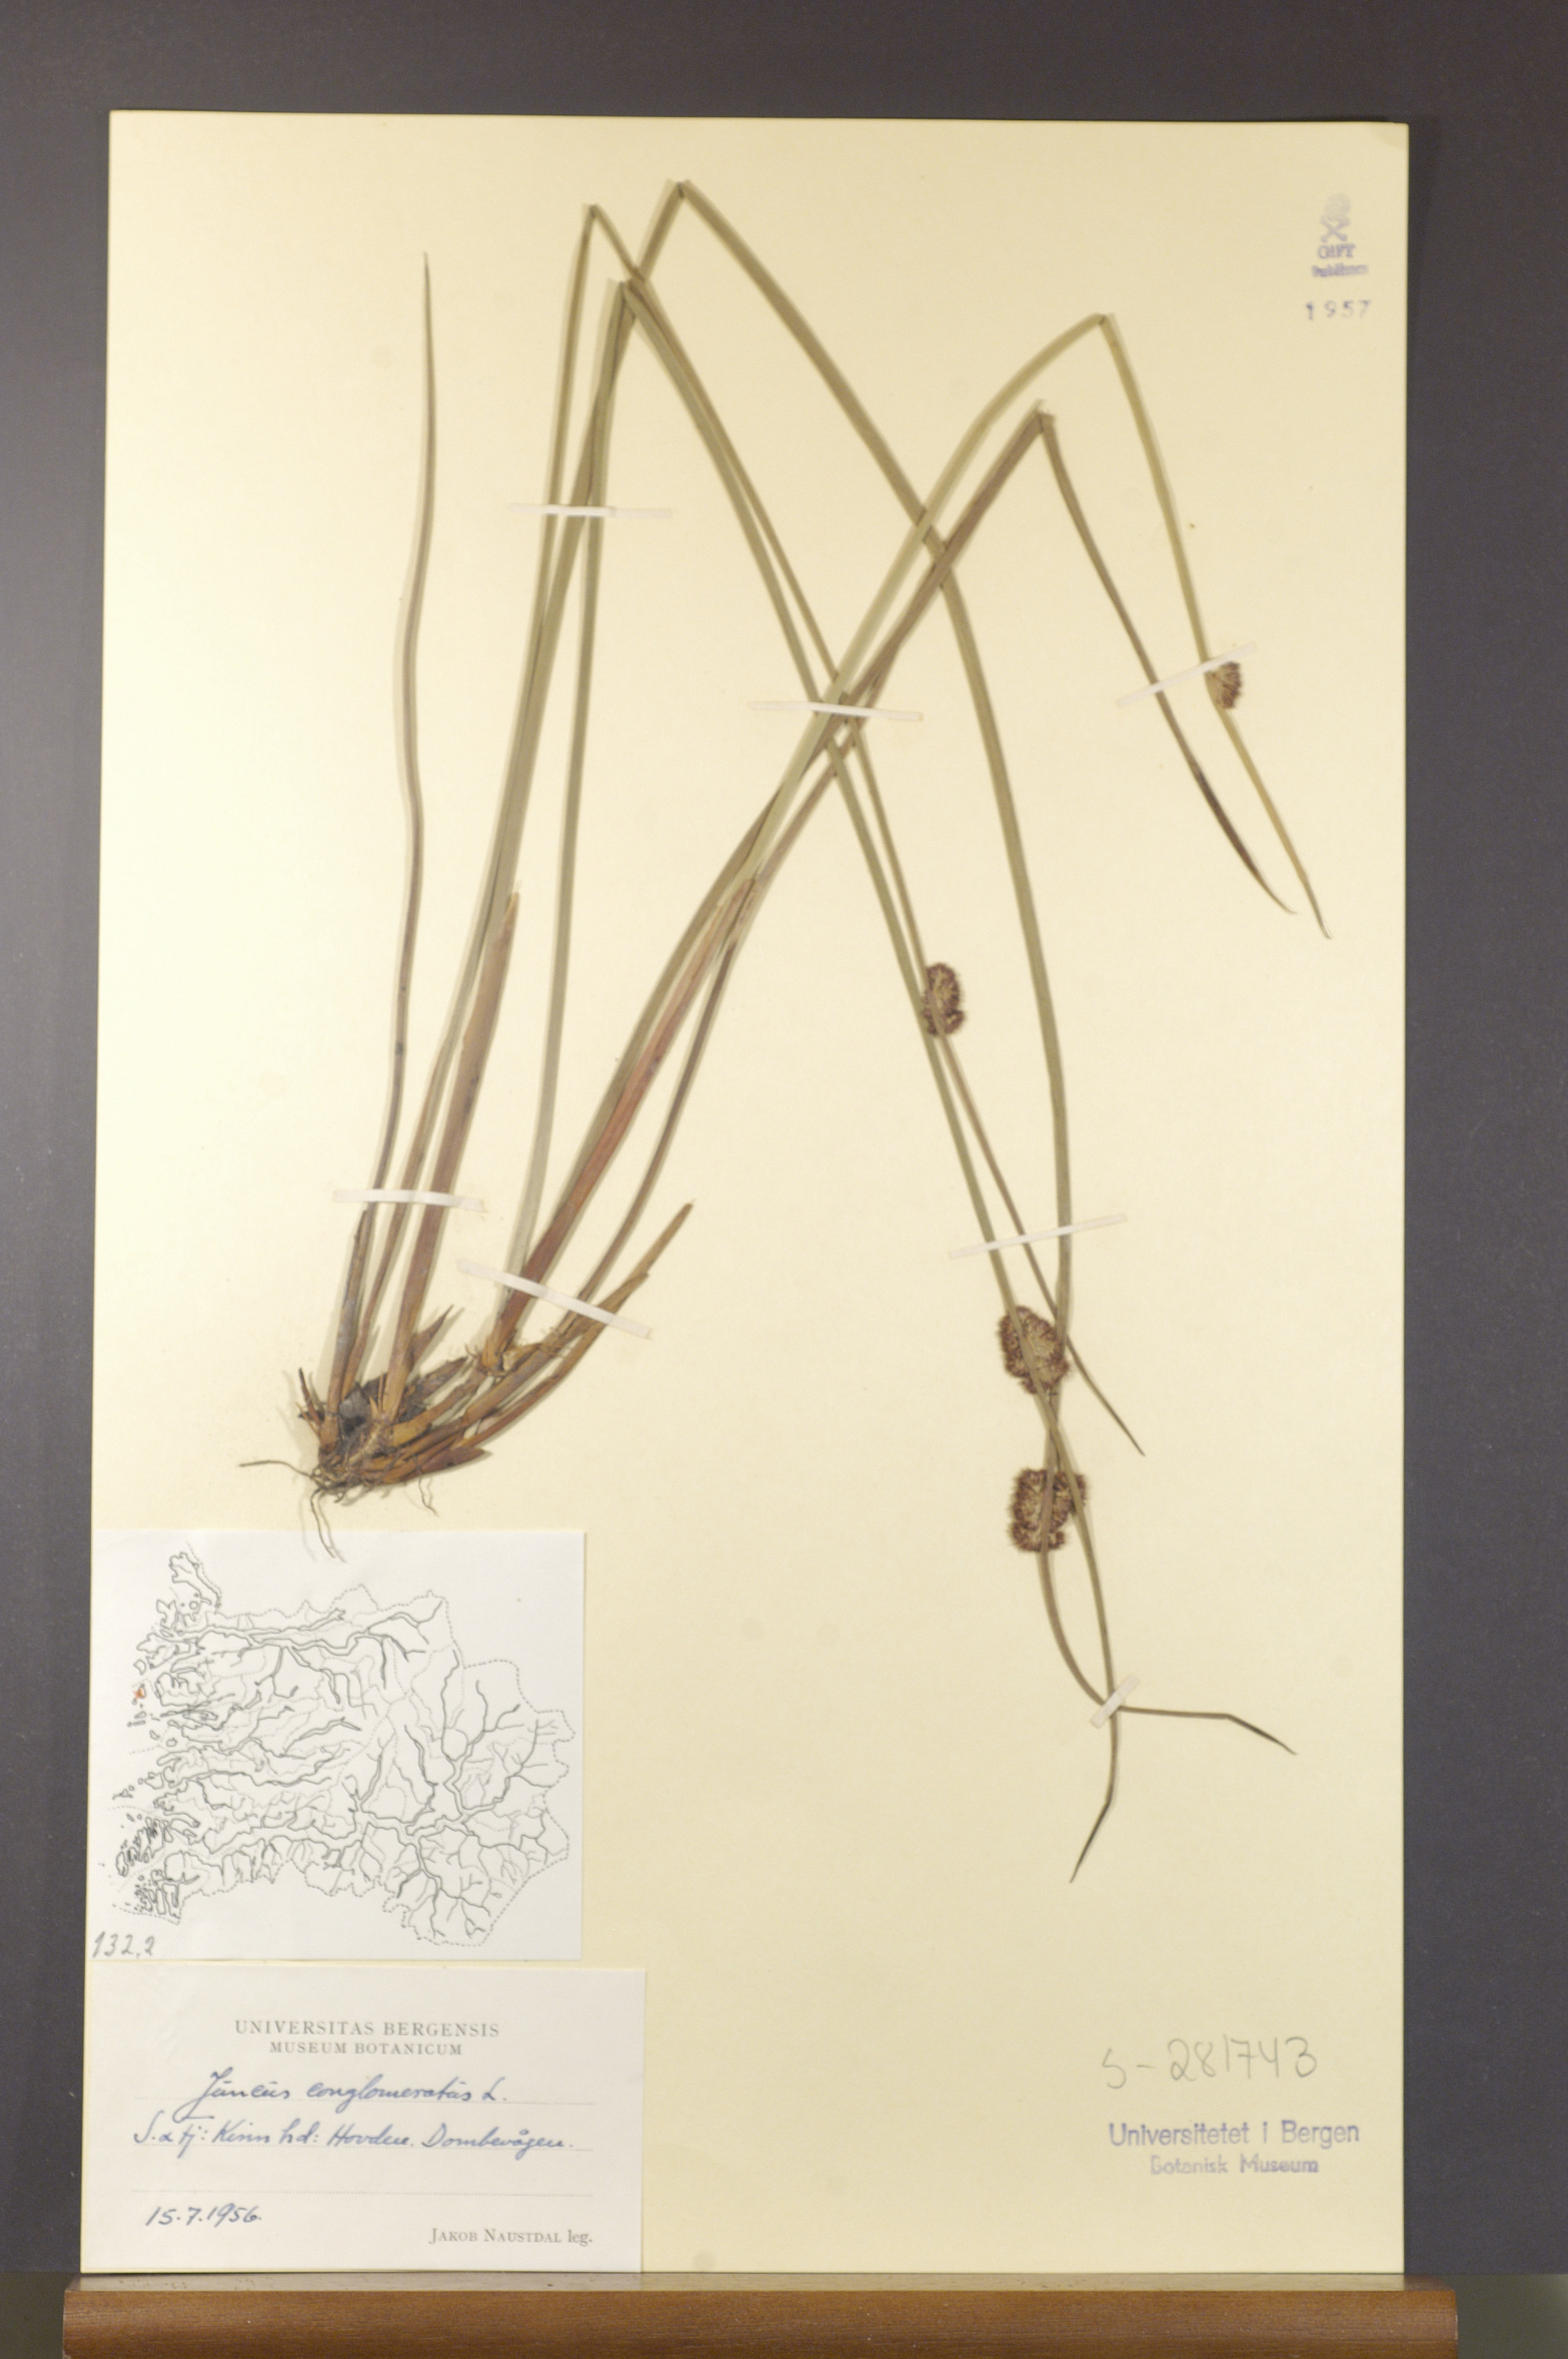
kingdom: Plantae
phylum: Tracheophyta
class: Liliopsida
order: Poales
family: Juncaceae
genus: Juncus
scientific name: Juncus conglomeratus
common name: Compact rush
